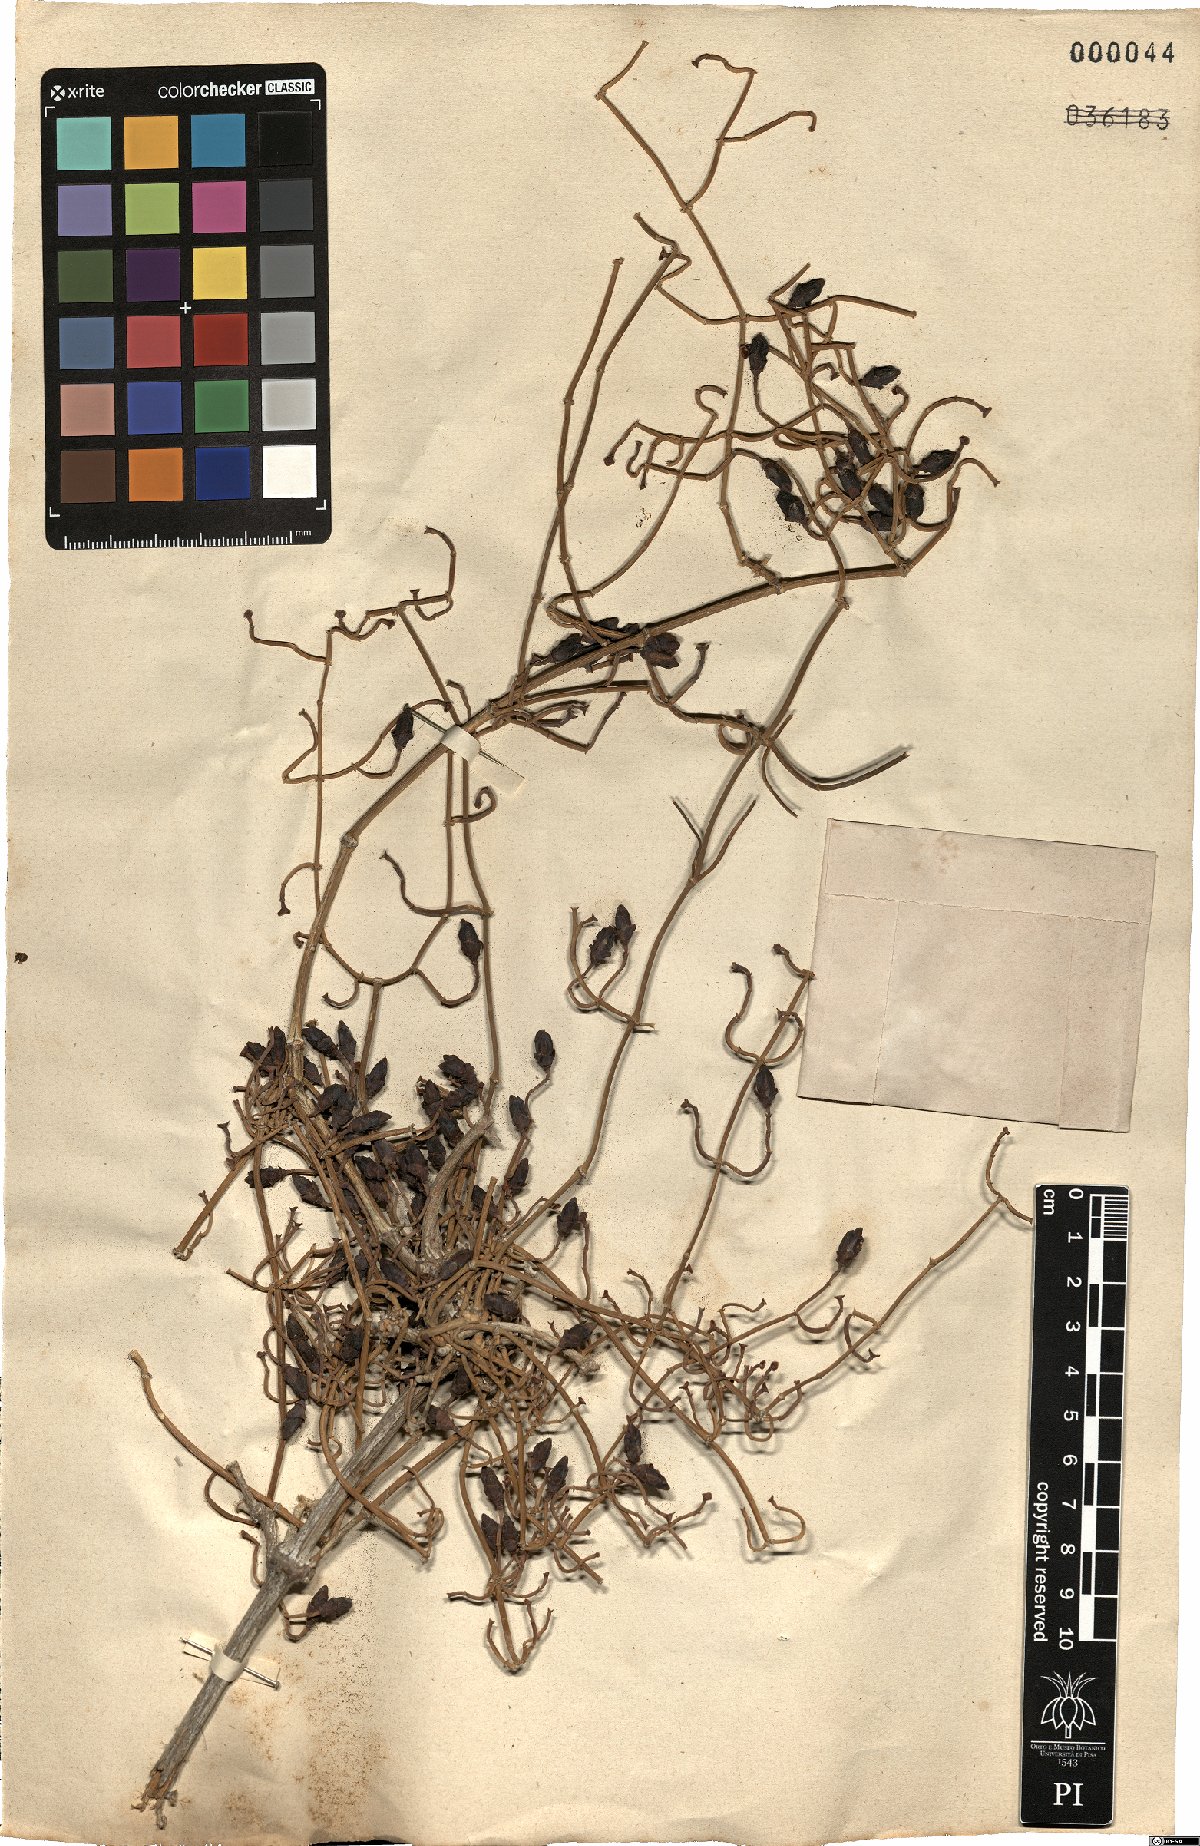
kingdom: Plantae
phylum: Tracheophyta
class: Gnetopsida
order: Ephedrales
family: Ephedraceae
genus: Ephedra
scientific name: Ephedra altissima
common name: High-climbing jointfir
